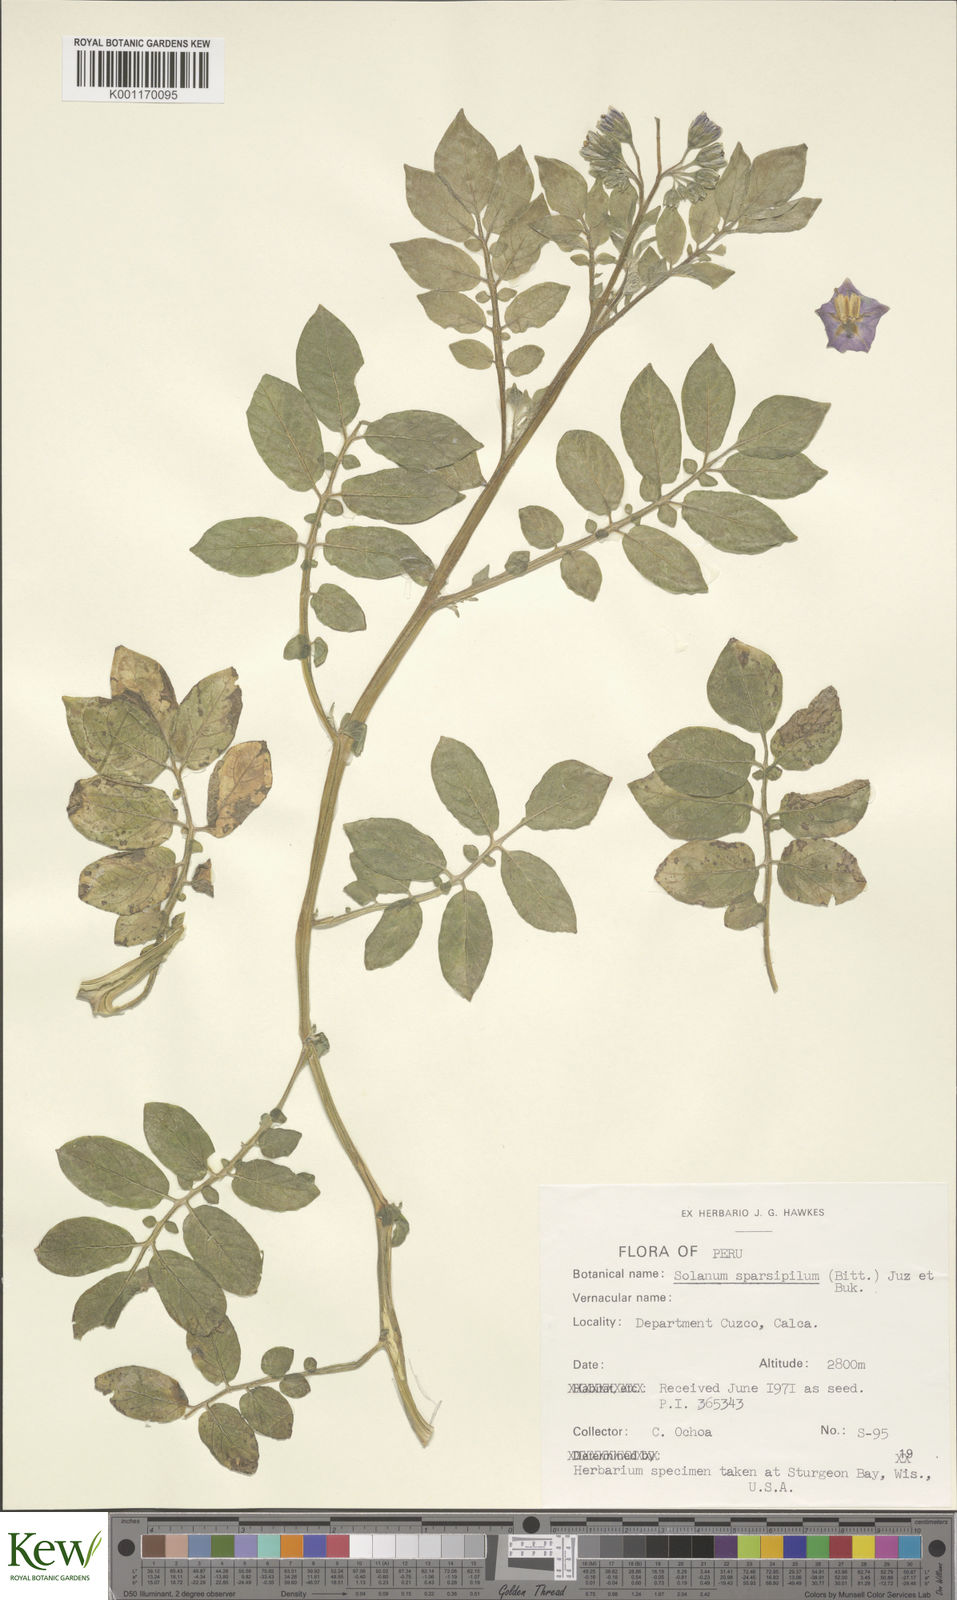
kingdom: Plantae
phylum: Tracheophyta
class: Magnoliopsida
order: Solanales
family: Solanaceae
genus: Solanum
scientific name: Solanum brevicaule
